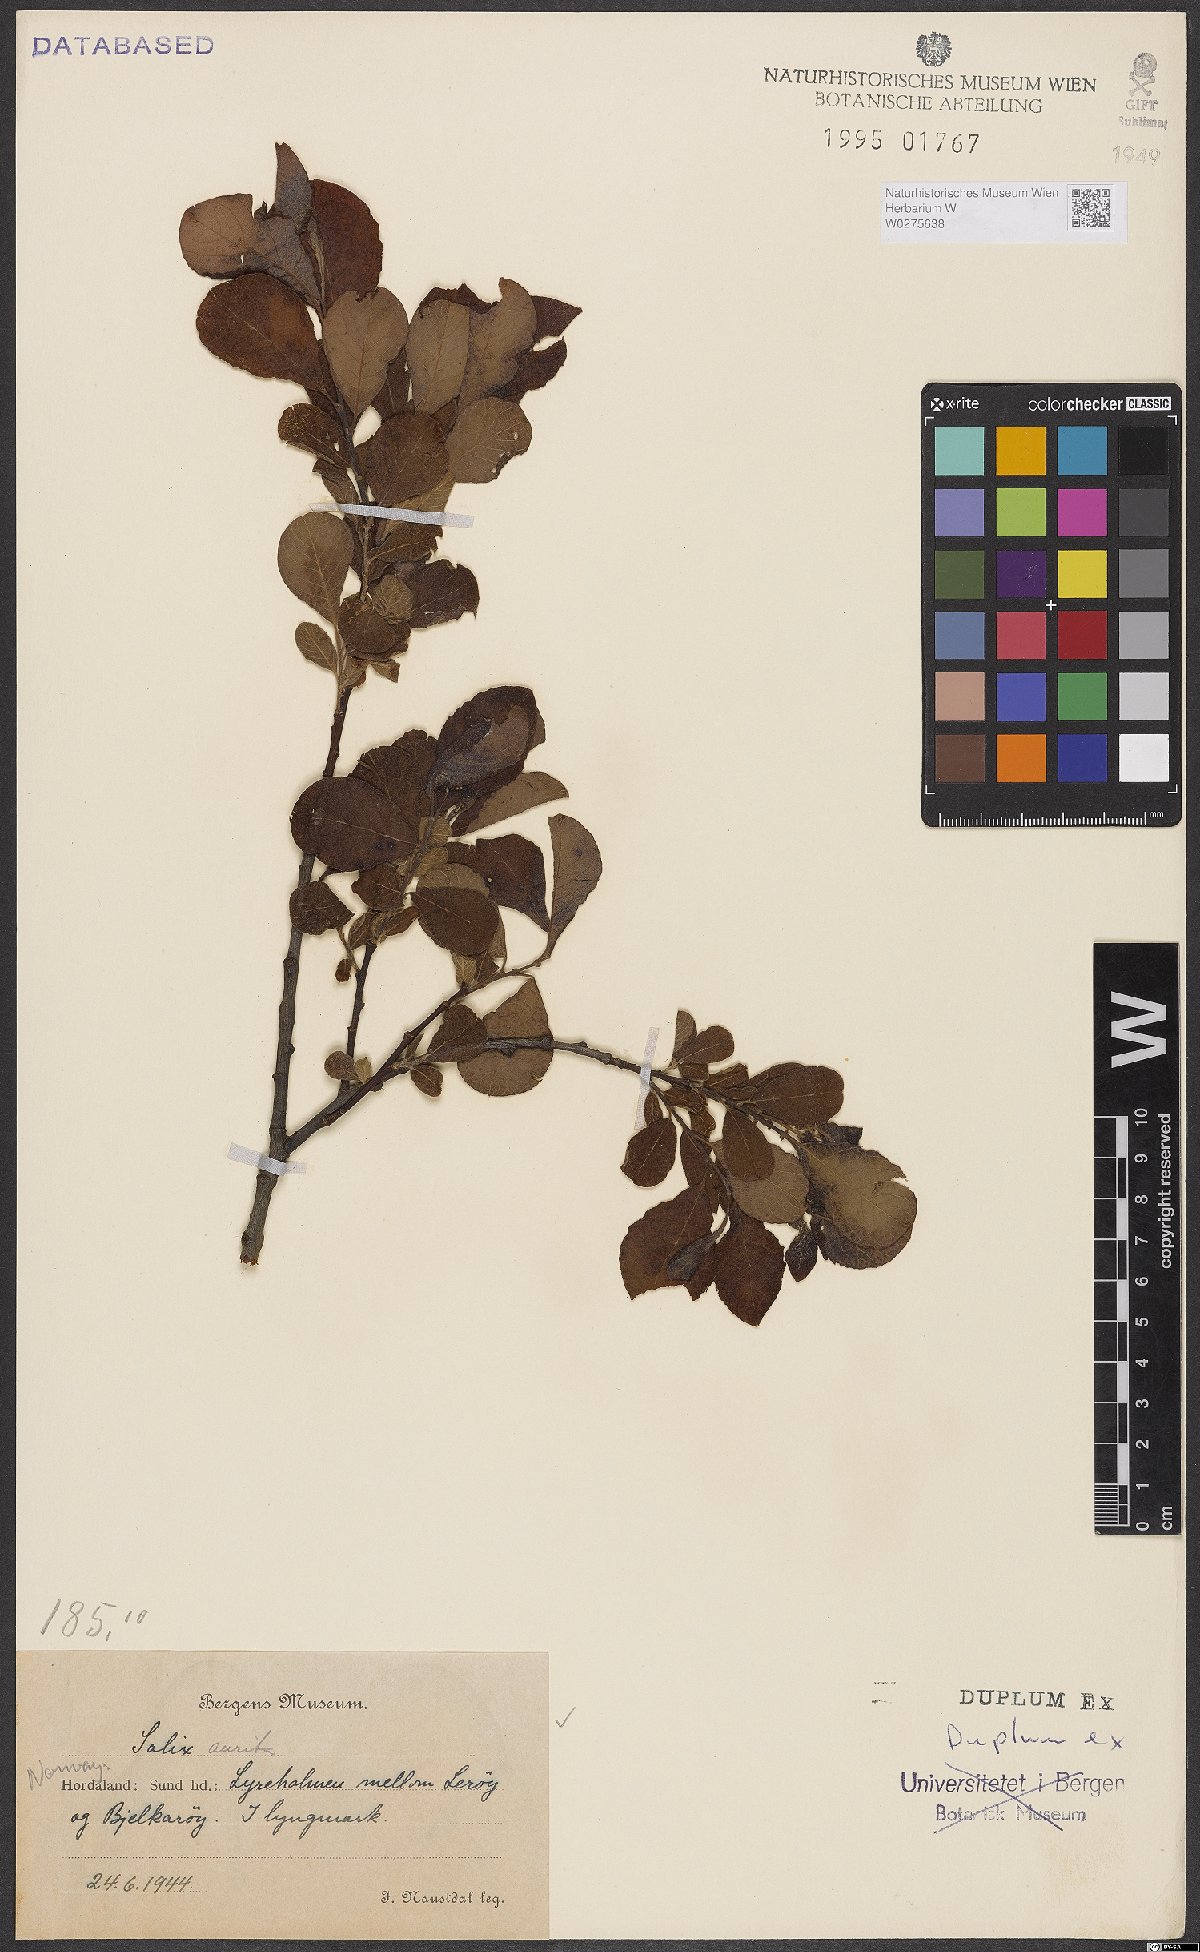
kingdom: Plantae
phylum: Tracheophyta
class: Magnoliopsida
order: Malpighiales
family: Salicaceae
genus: Salix
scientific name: Salix aurita
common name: Eared willow
